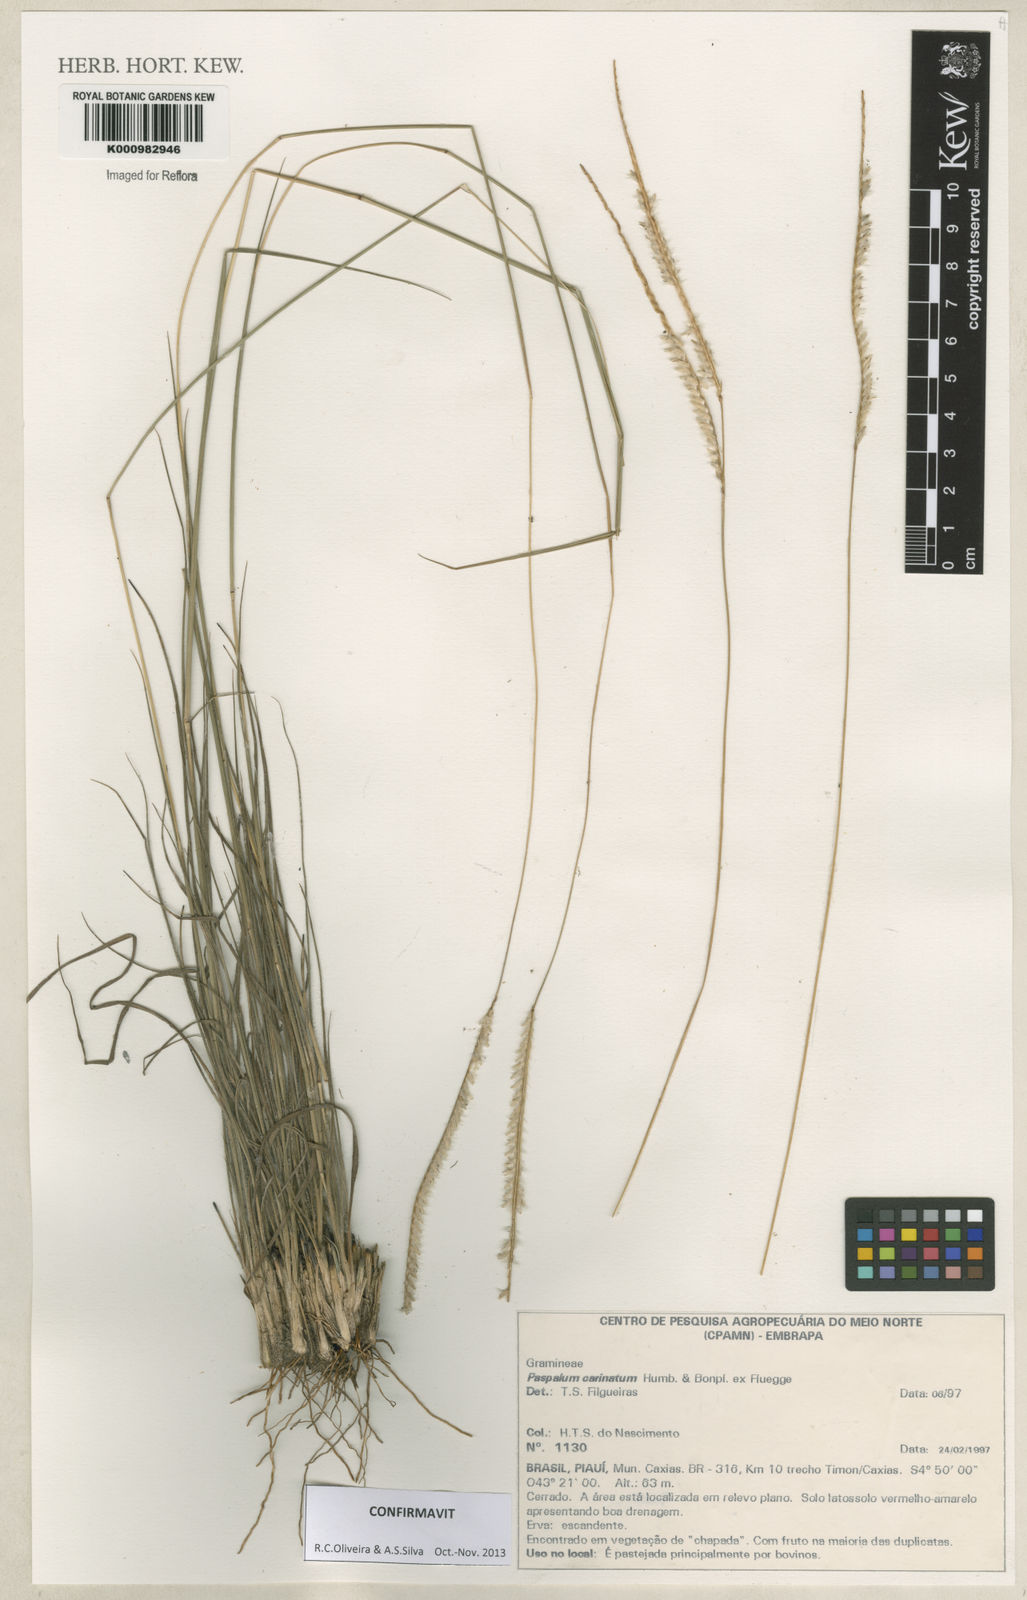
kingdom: Plantae
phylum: Tracheophyta
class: Liliopsida
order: Poales
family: Poaceae
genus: Paspalum
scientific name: Paspalum
